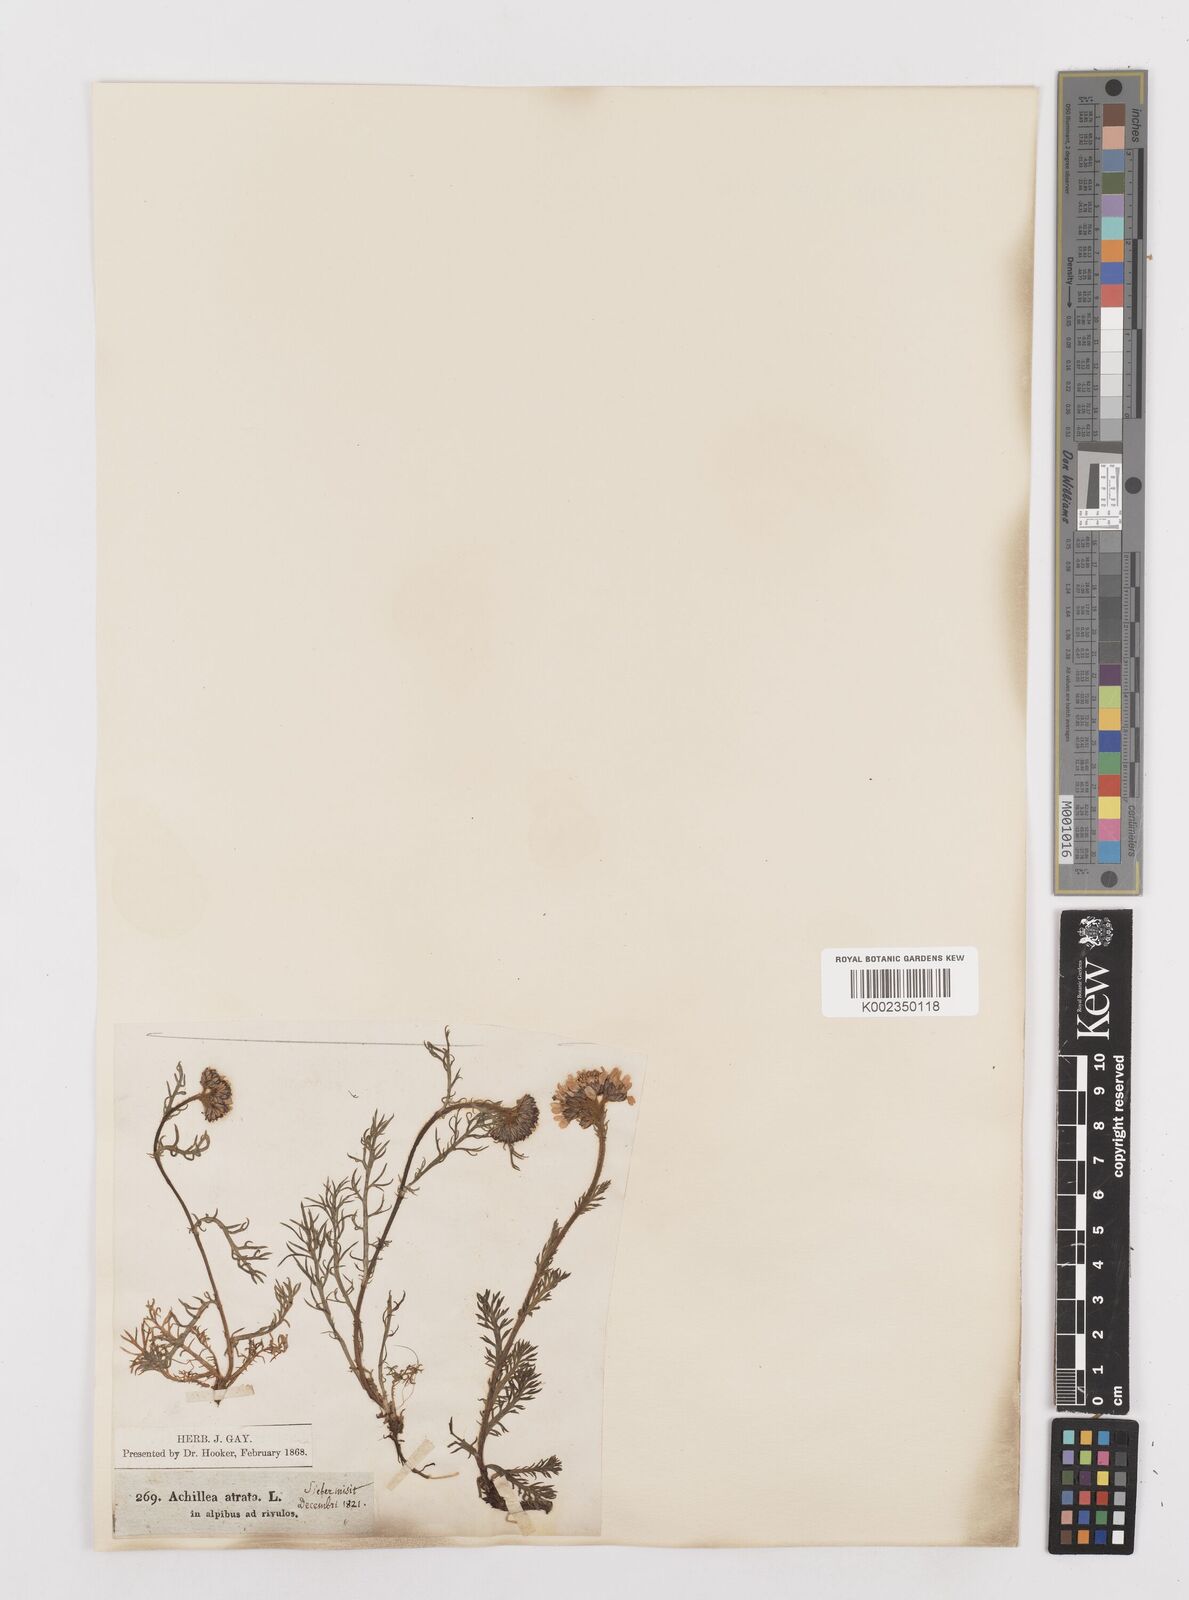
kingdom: Plantae
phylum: Tracheophyta
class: Magnoliopsida
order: Asterales
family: Asteraceae
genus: Achillea
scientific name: Achillea atrata
